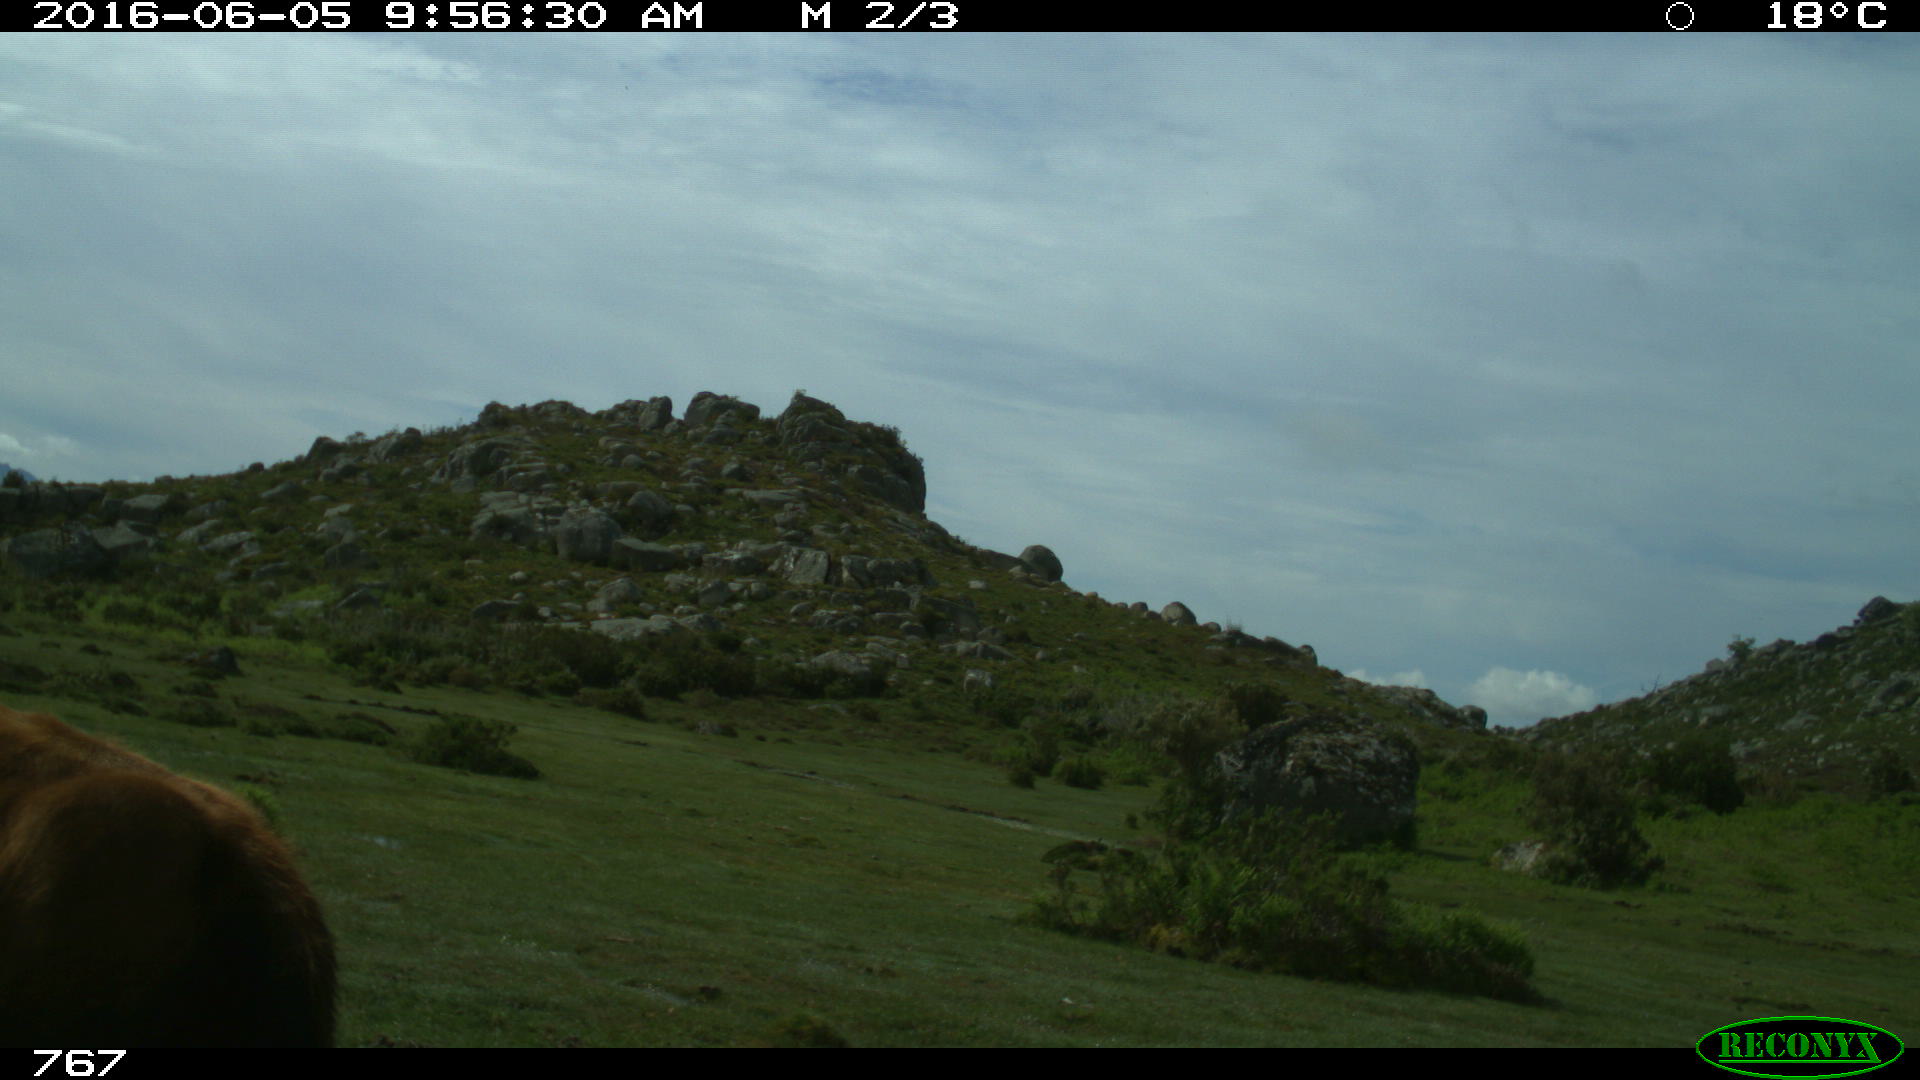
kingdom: Animalia
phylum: Chordata
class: Mammalia
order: Artiodactyla
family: Bovidae
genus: Bos
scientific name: Bos taurus
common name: Domesticated cattle
